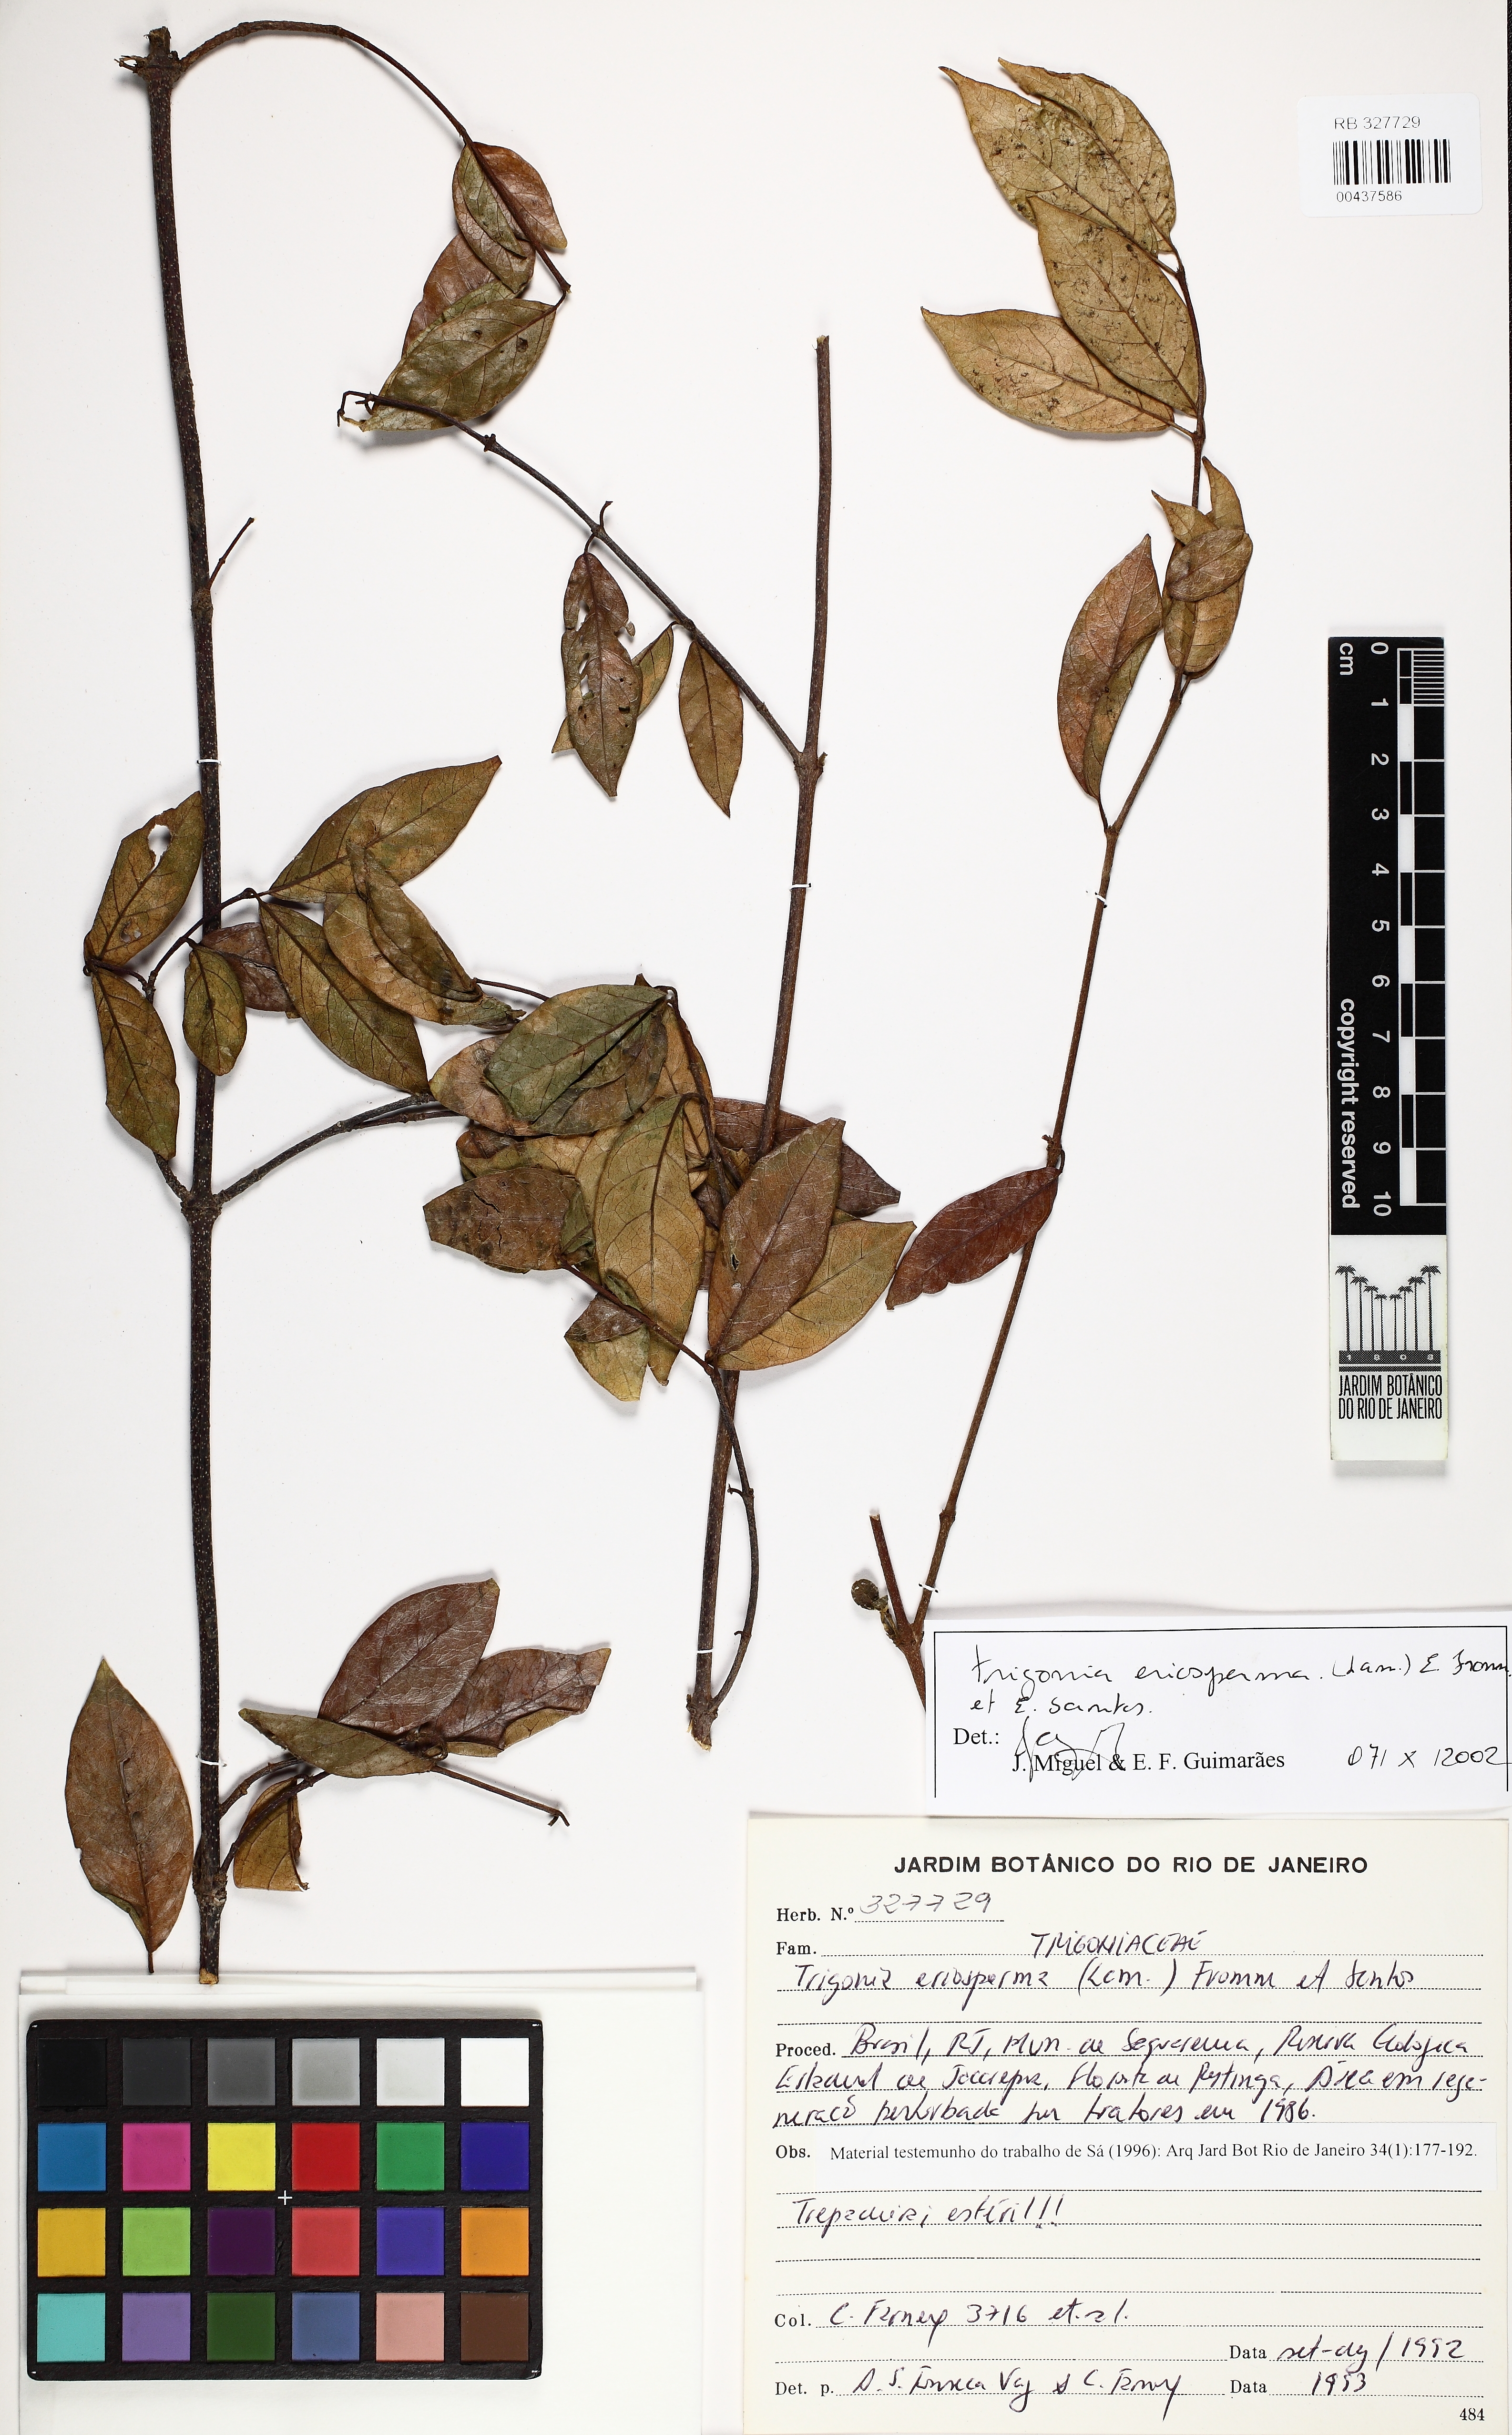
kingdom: Plantae
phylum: Tracheophyta
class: Magnoliopsida
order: Malpighiales
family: Trigoniaceae
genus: Trigonia
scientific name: Trigonia eriosperma
